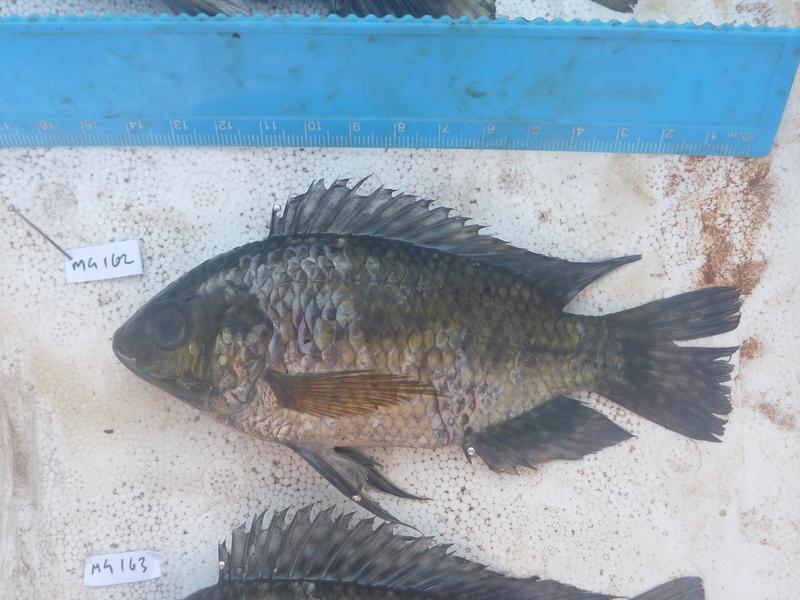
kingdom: Animalia
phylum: Chordata
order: Perciformes
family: Cichlidae
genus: Oreochromis
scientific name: Oreochromis leucostictus
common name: Blue spotted tilapia
